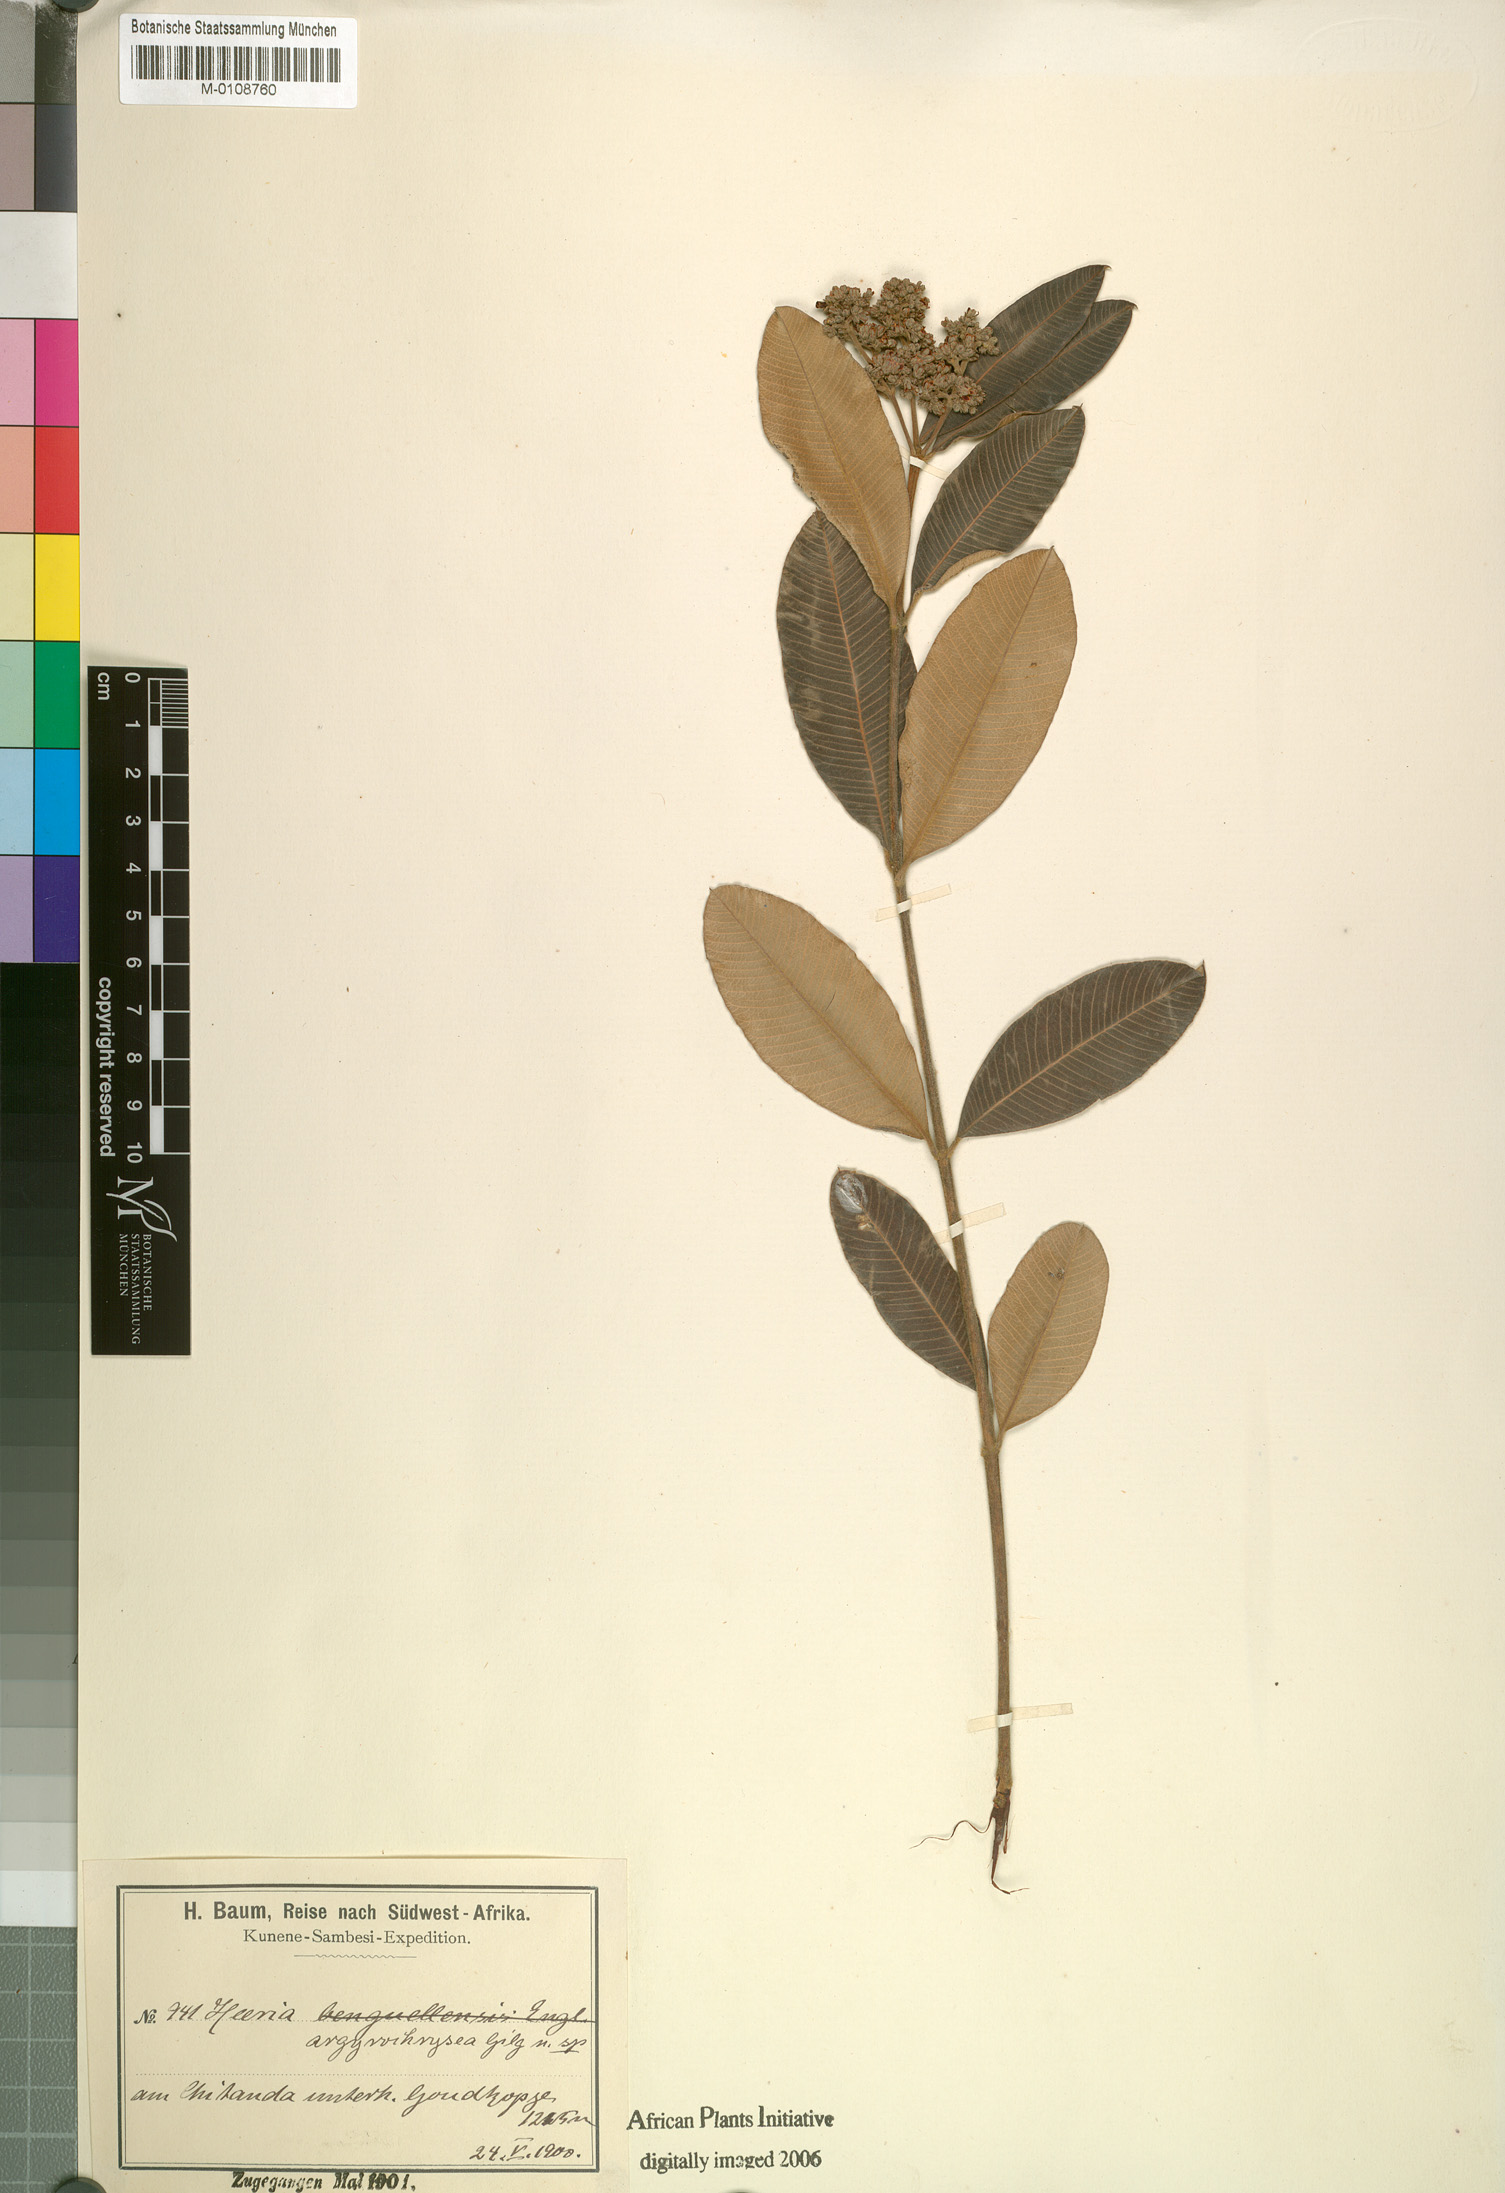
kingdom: Plantae
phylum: Tracheophyta
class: Magnoliopsida
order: Sapindales
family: Anacardiaceae
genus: Ozoroa
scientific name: Ozoroa argyrochrysea
